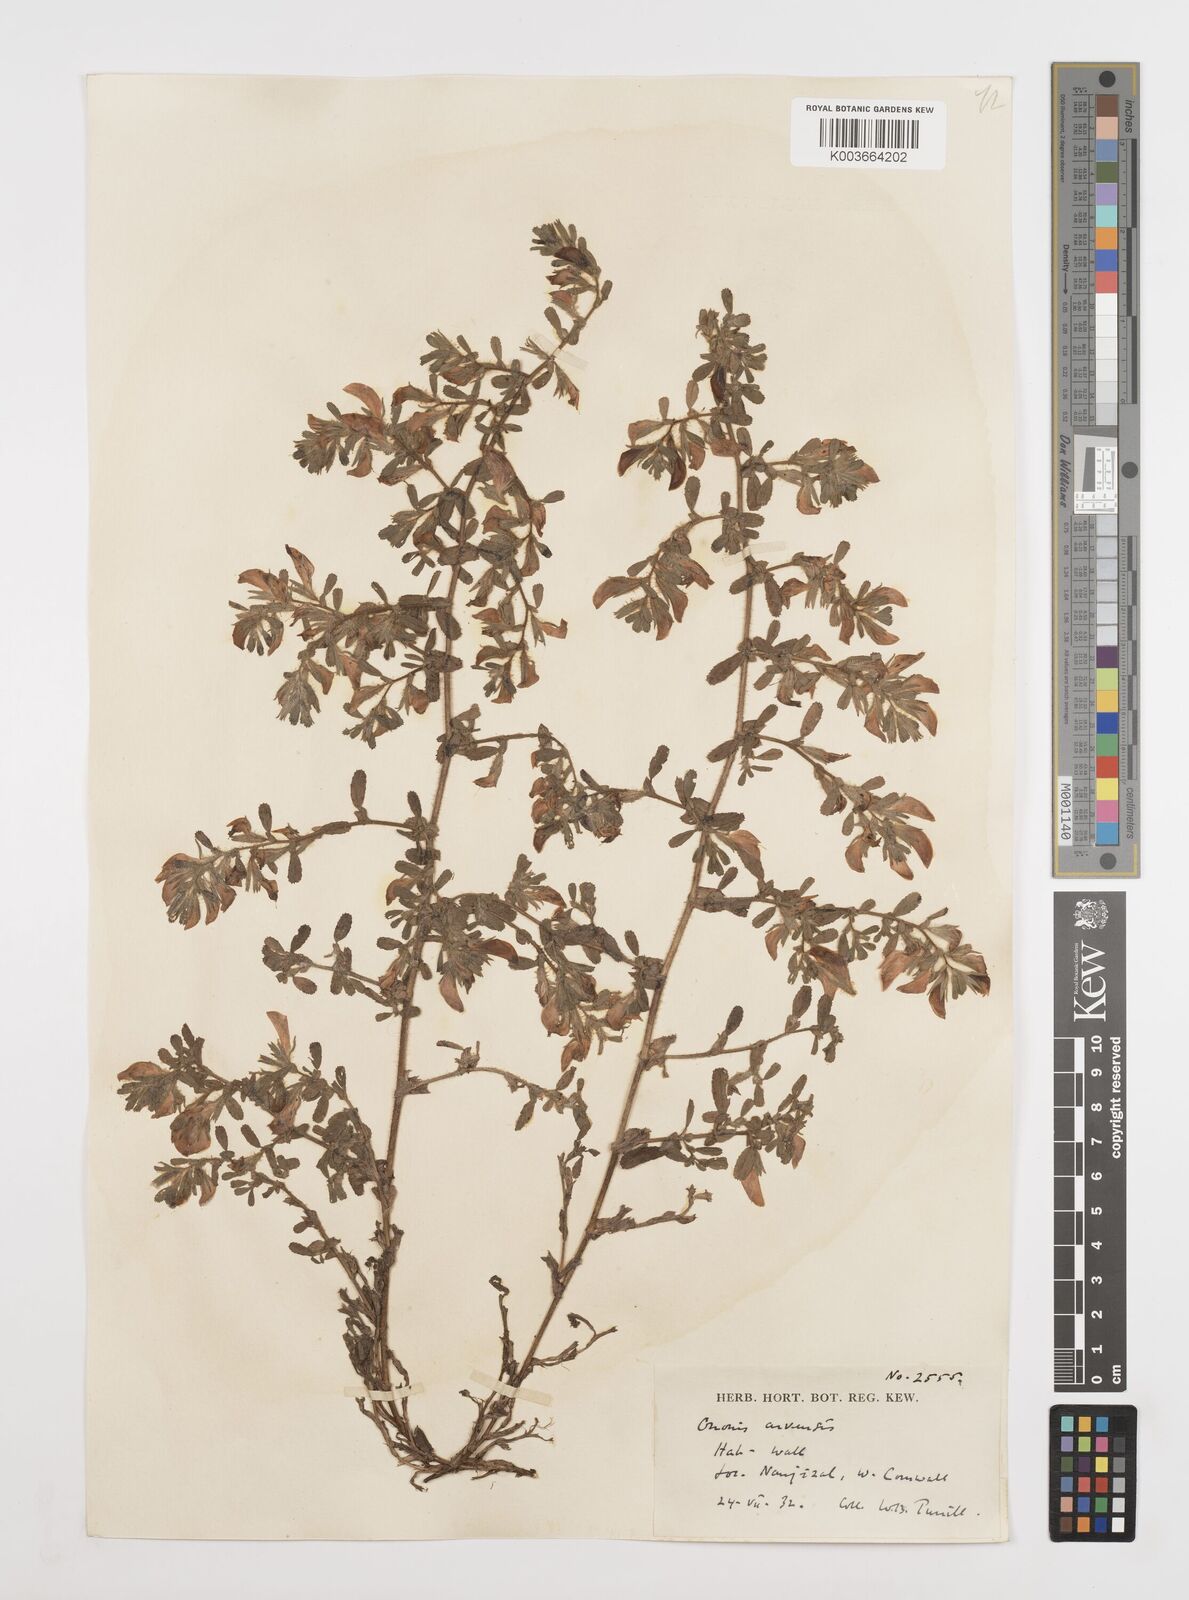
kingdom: Plantae
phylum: Tracheophyta
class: Magnoliopsida
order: Fabales
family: Fabaceae
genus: Ononis
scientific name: Ononis spinosa
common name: Spiny restharrow
